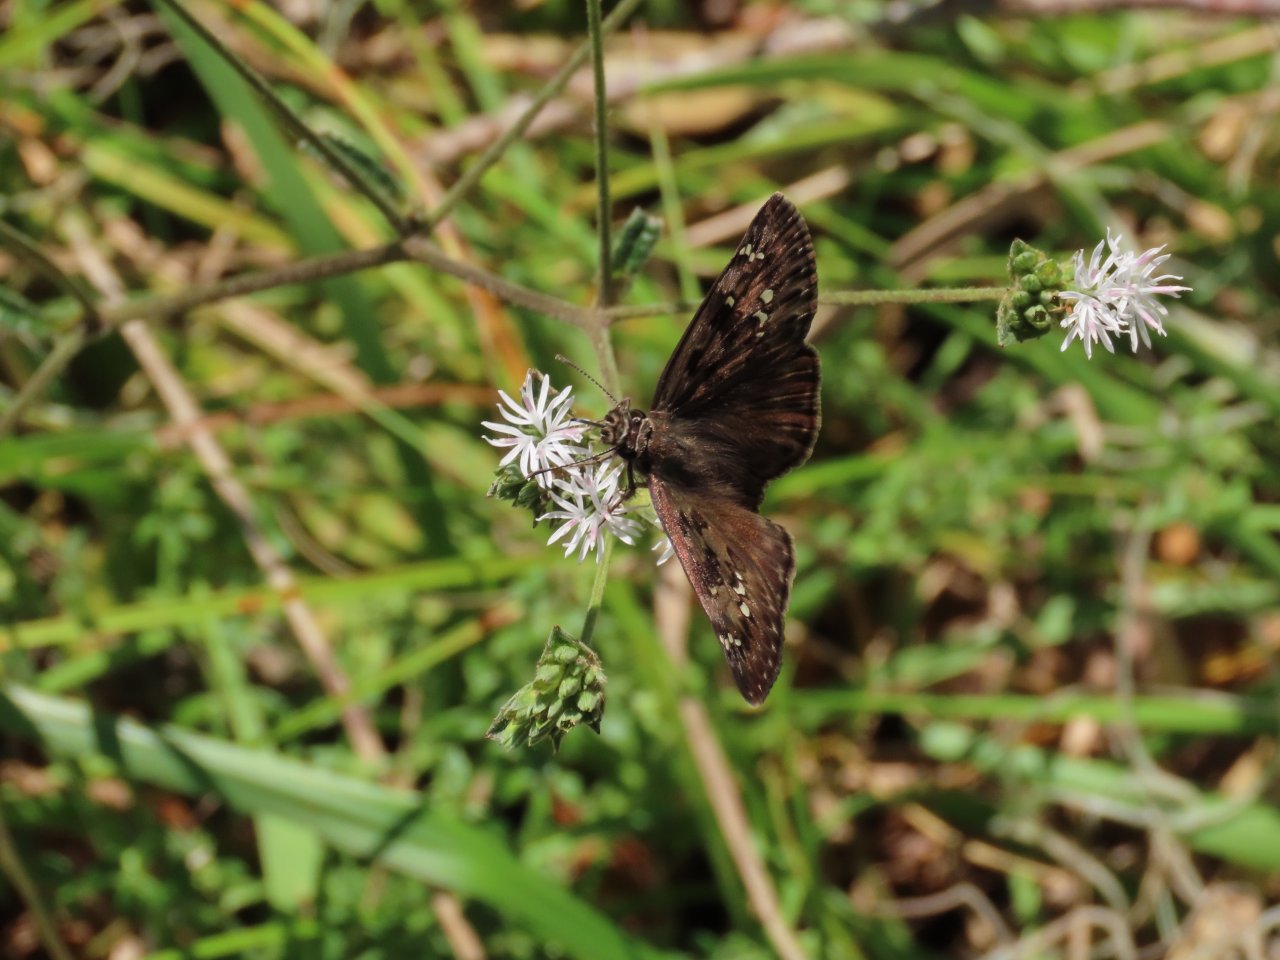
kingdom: Animalia
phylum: Arthropoda
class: Insecta
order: Lepidoptera
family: Hesperiidae
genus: Gesta
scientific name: Gesta
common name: Horace's Duskywing
